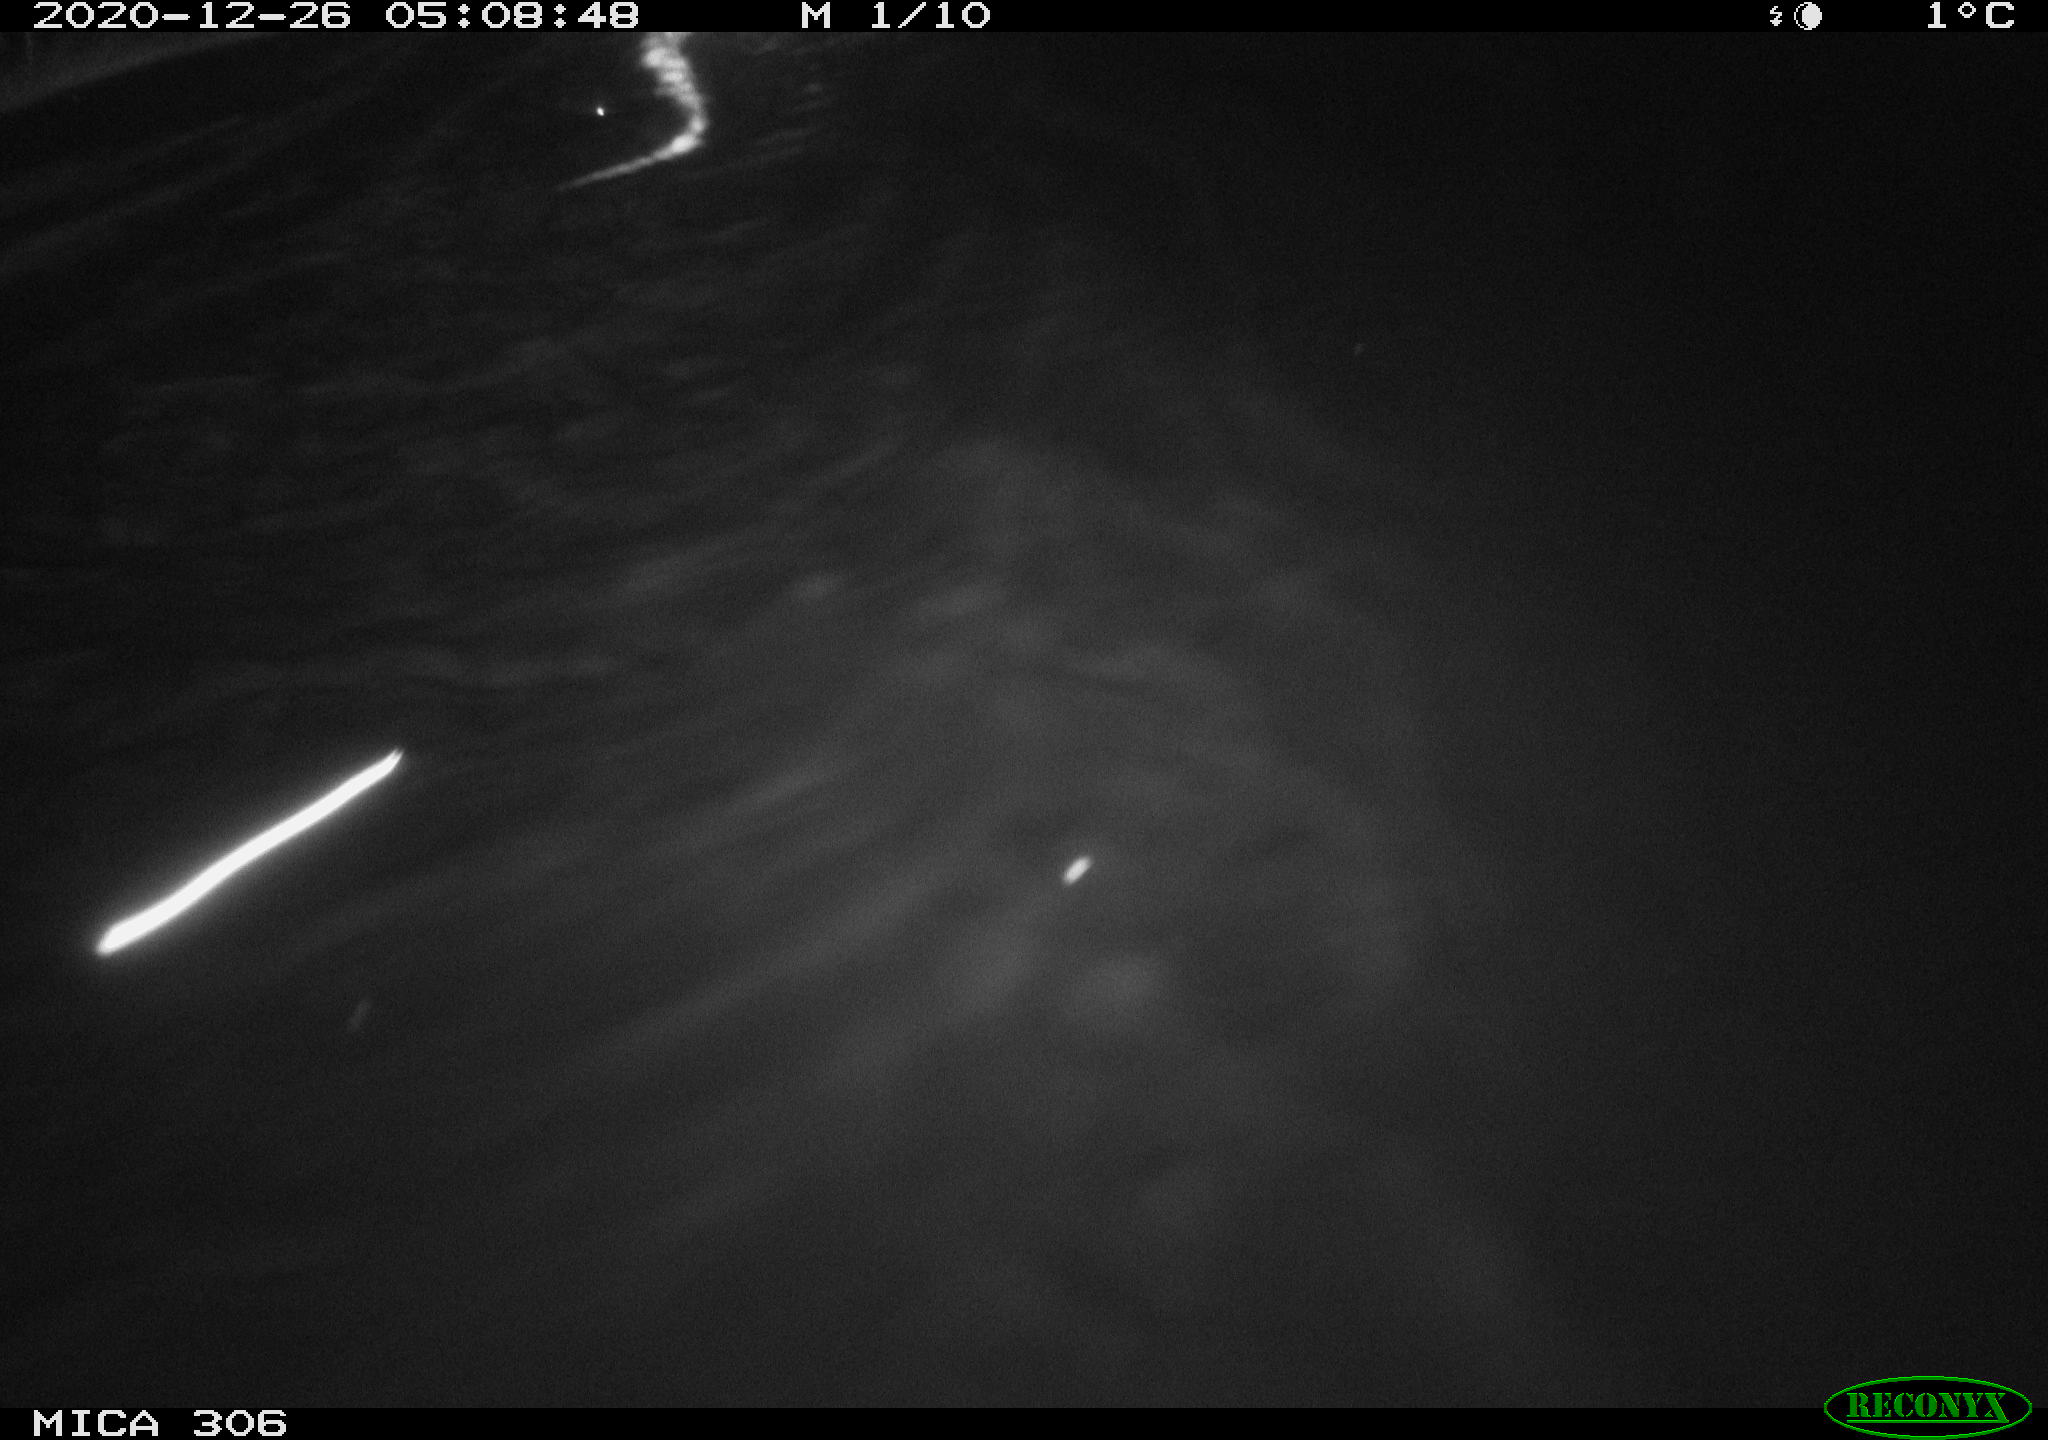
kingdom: Animalia
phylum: Chordata
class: Mammalia
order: Rodentia
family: Cricetidae
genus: Ondatra
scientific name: Ondatra zibethicus
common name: Muskrat
